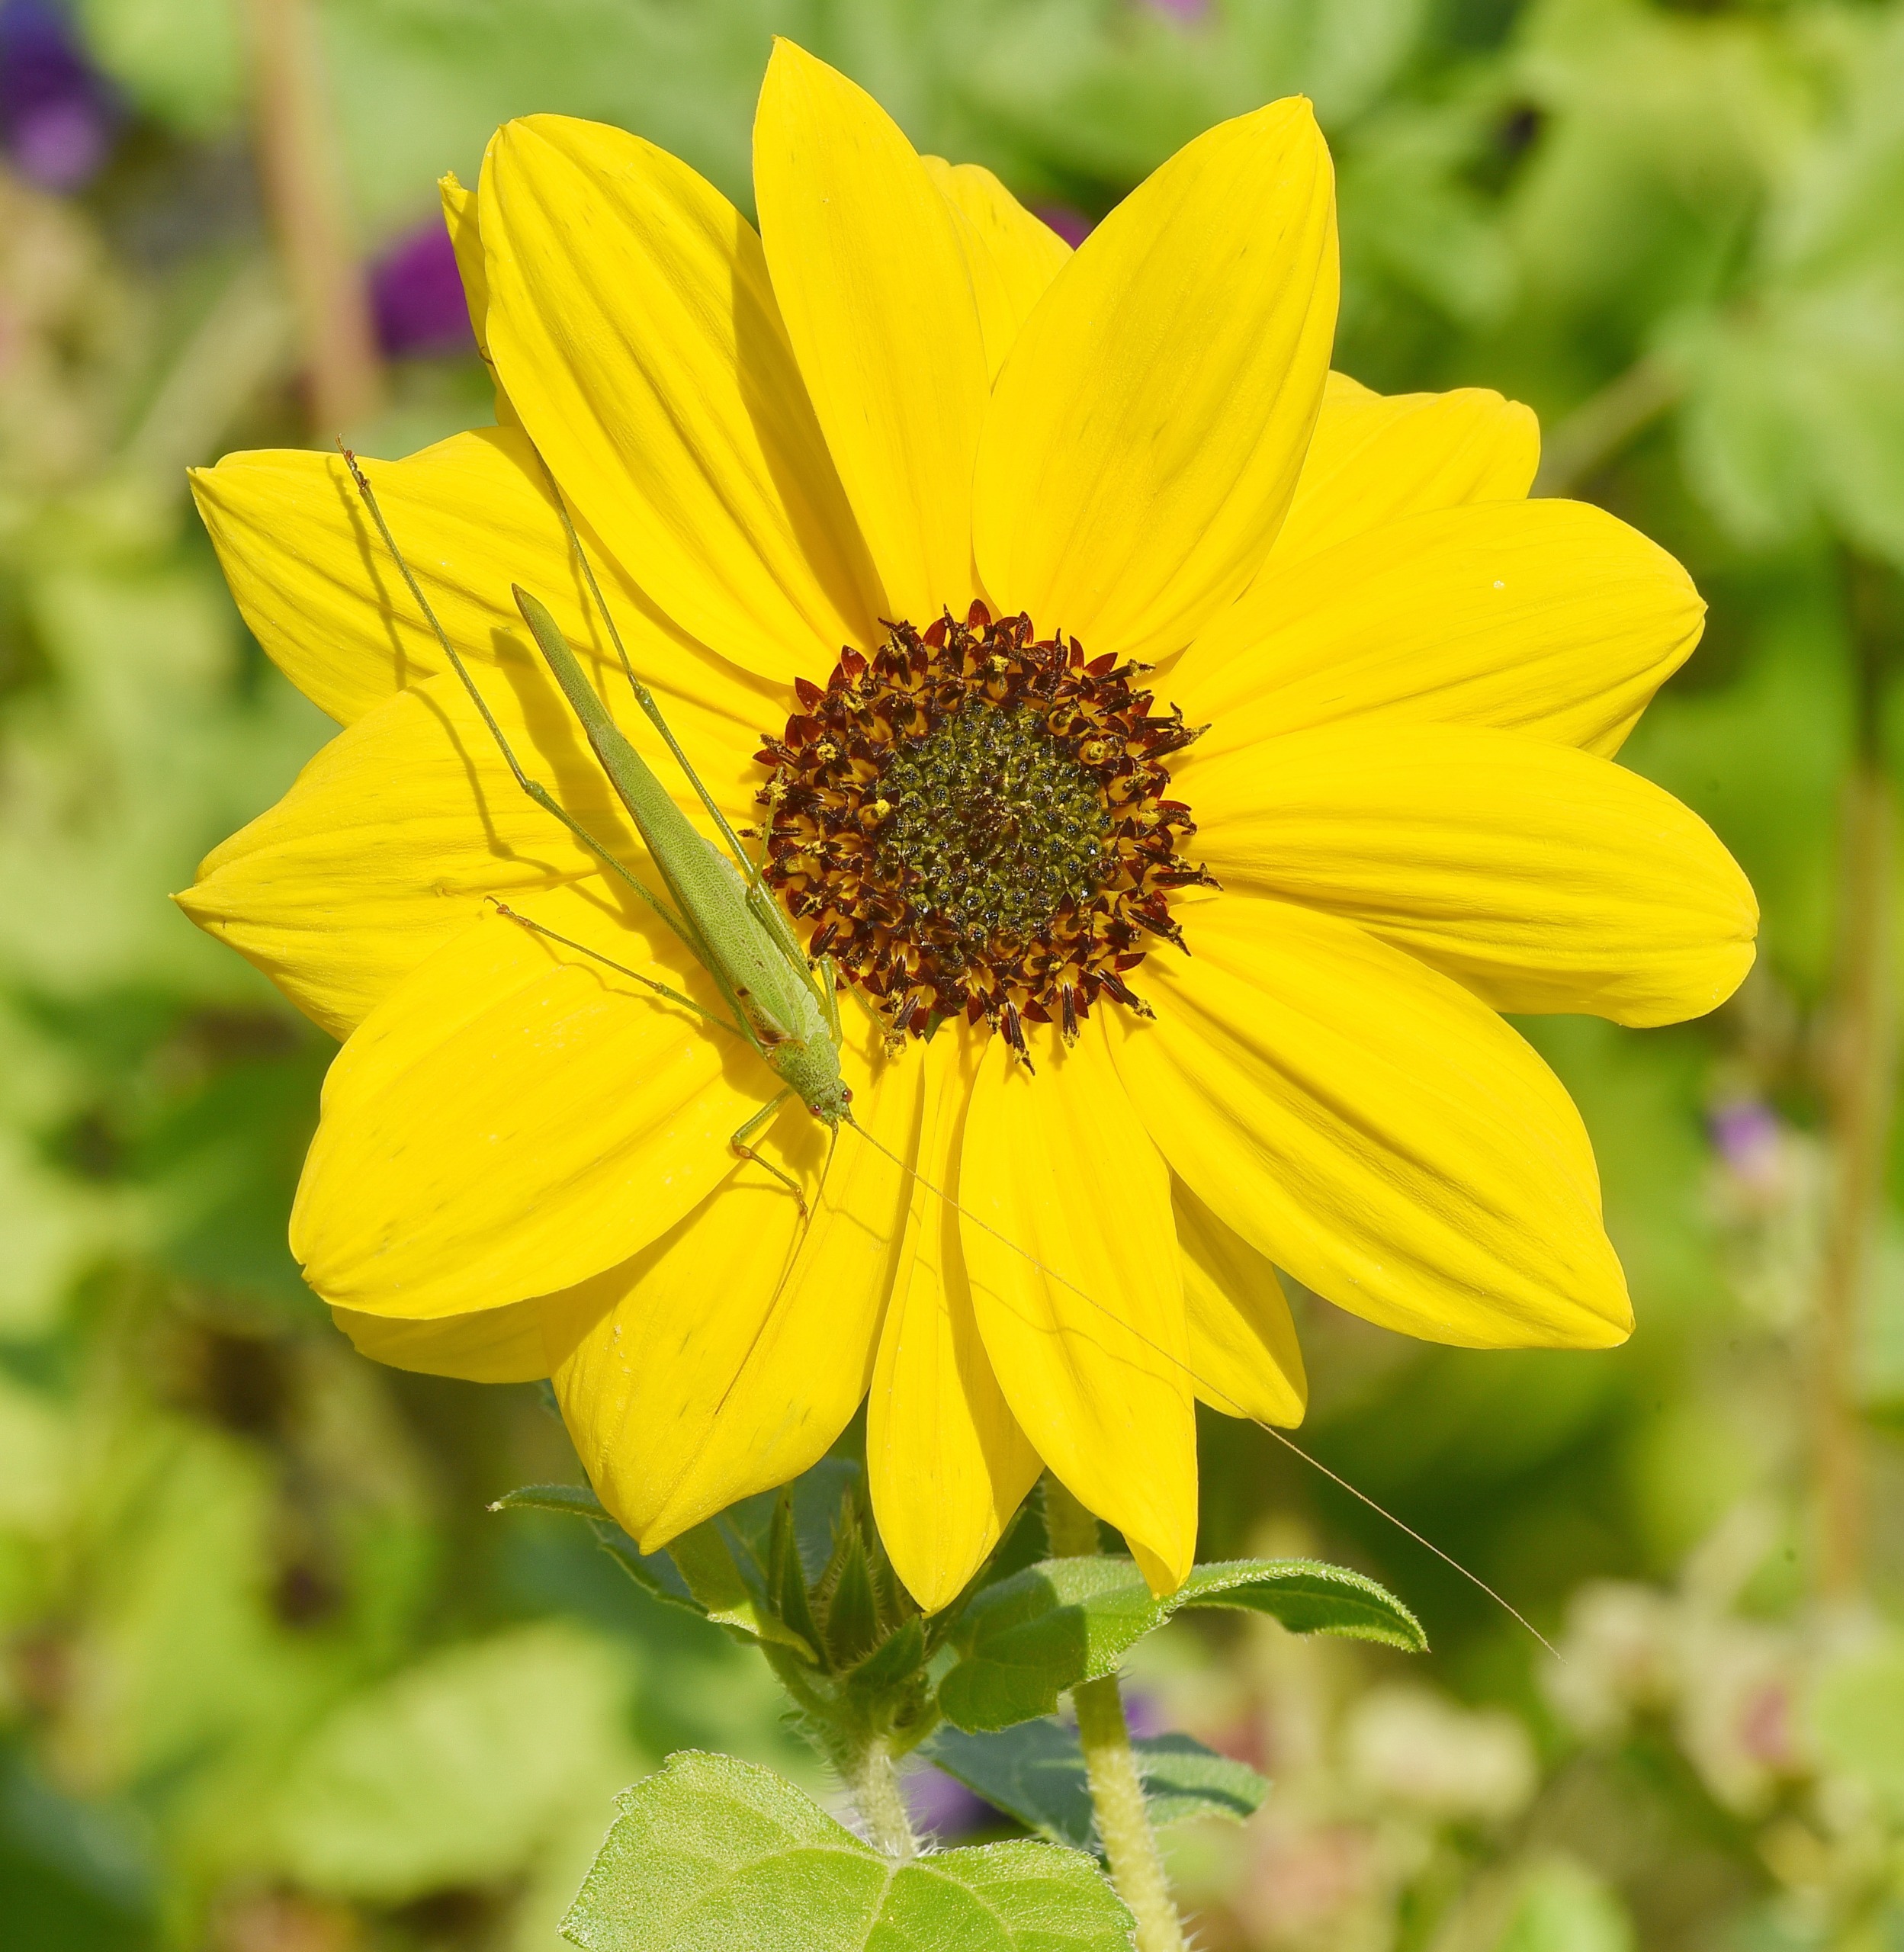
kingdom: Animalia
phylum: Arthropoda
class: Insecta
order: Orthoptera
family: Tettigoniidae
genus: Phaneroptera
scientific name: Phaneroptera falcata
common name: Seglgræshoppe
